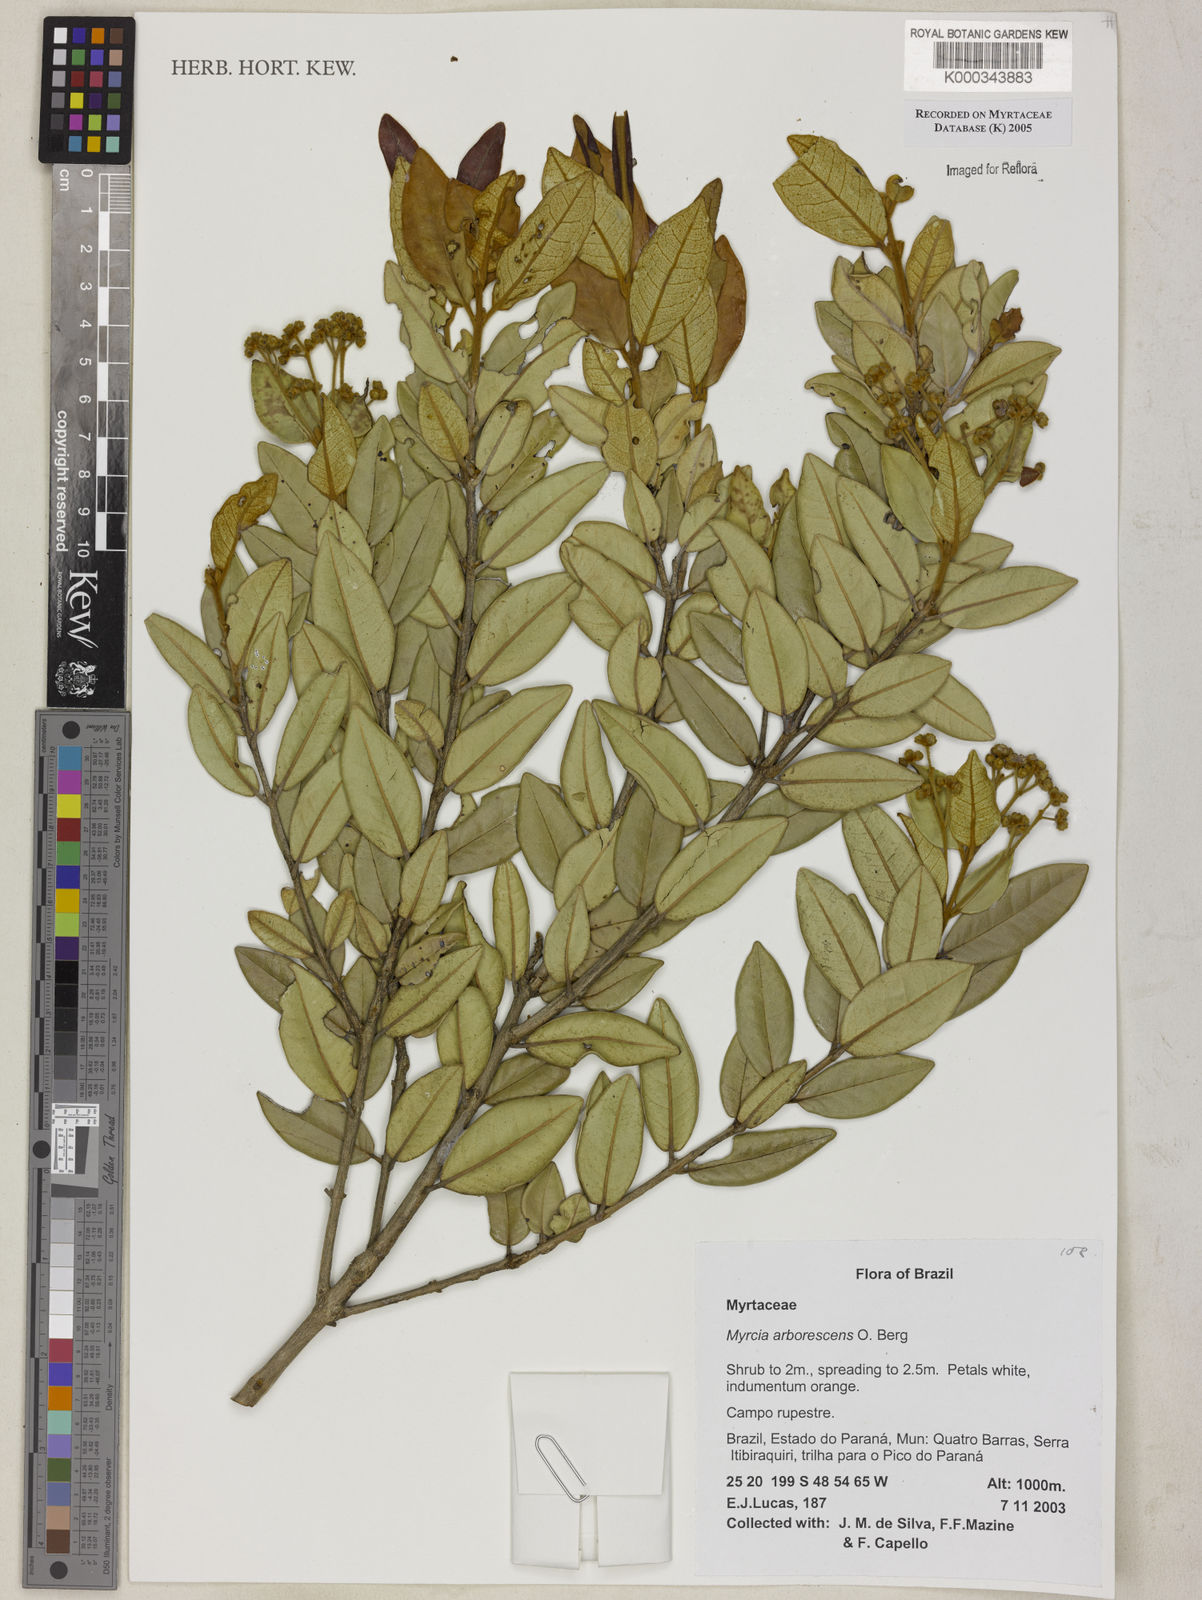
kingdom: Plantae
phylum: Tracheophyta
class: Magnoliopsida
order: Myrtales
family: Myrtaceae
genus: Myrcia
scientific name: Myrcia retorta
